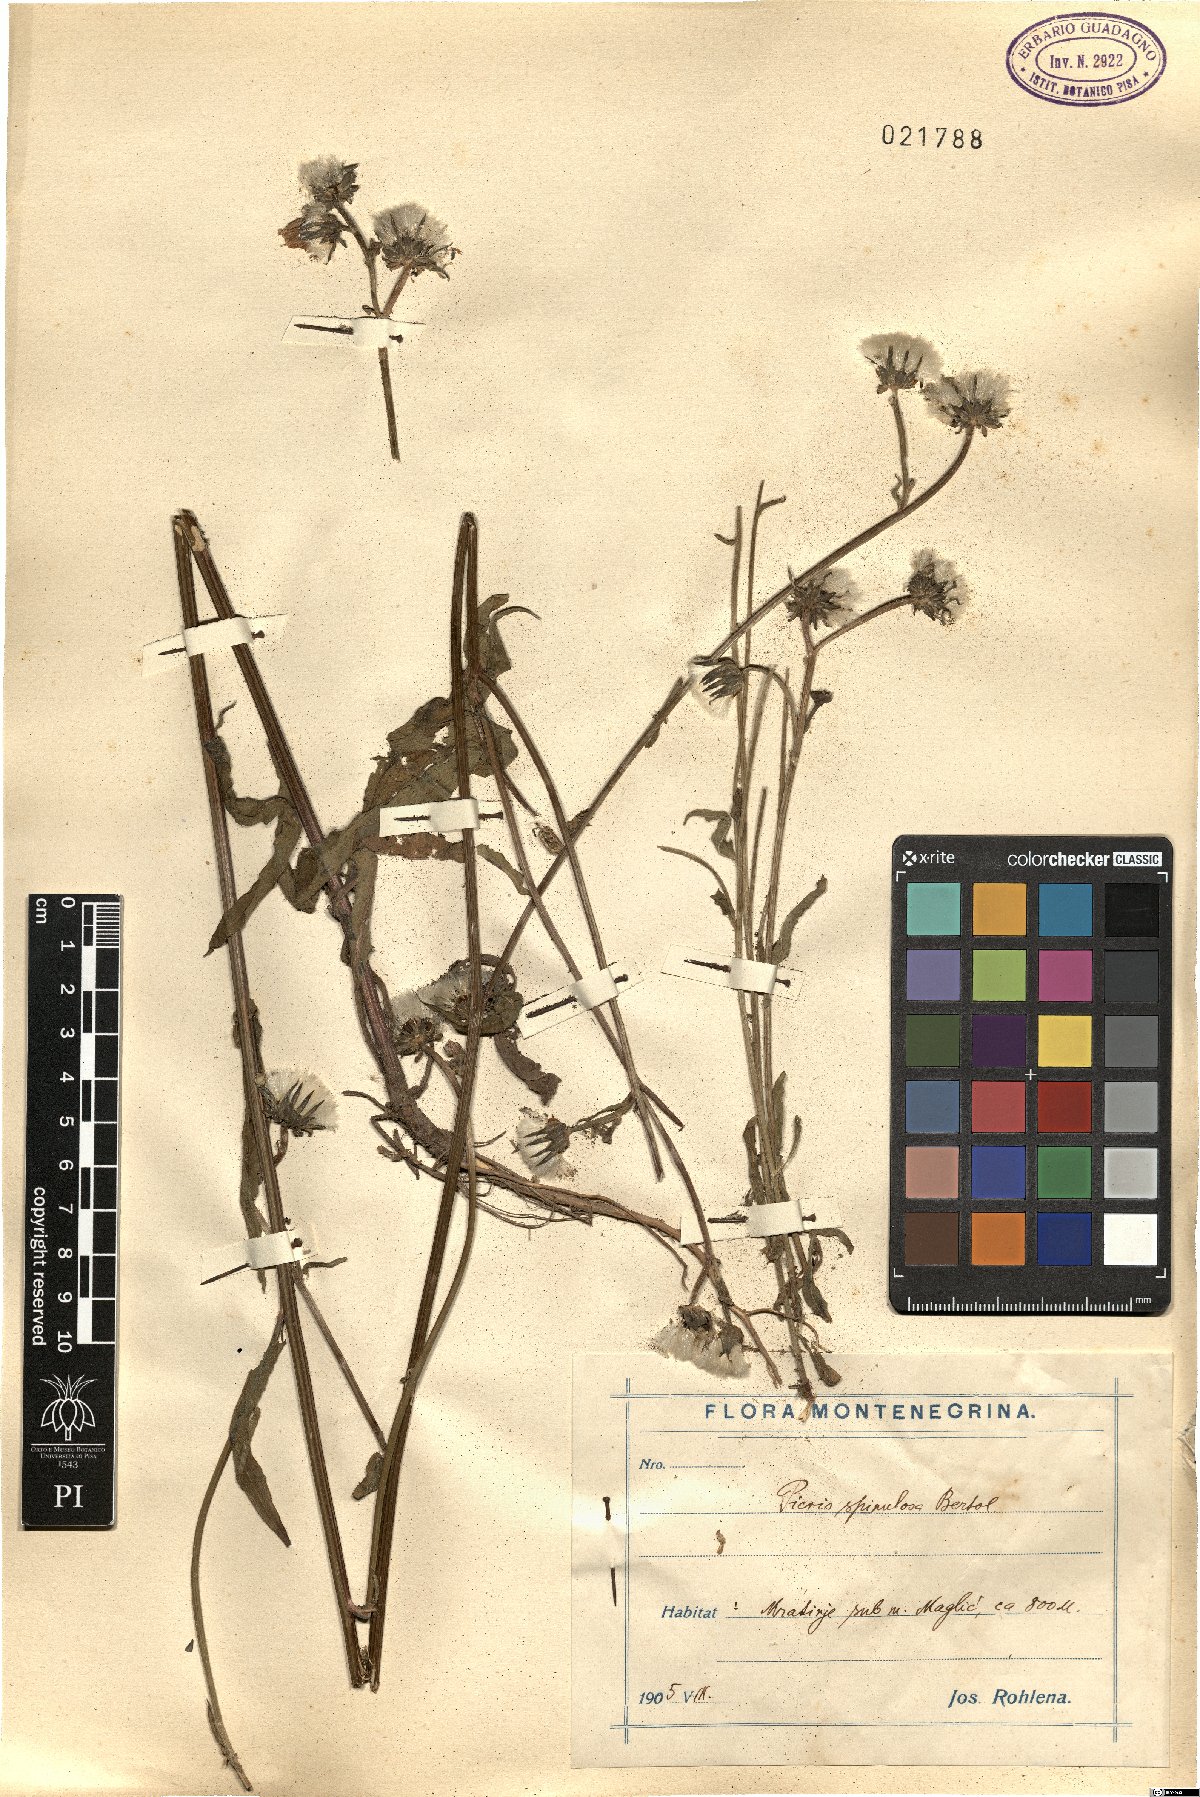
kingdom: Plantae
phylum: Tracheophyta
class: Magnoliopsida
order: Asterales
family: Asteraceae
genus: Picris
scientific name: Picris hieracioides
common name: Hawkweed oxtongue
